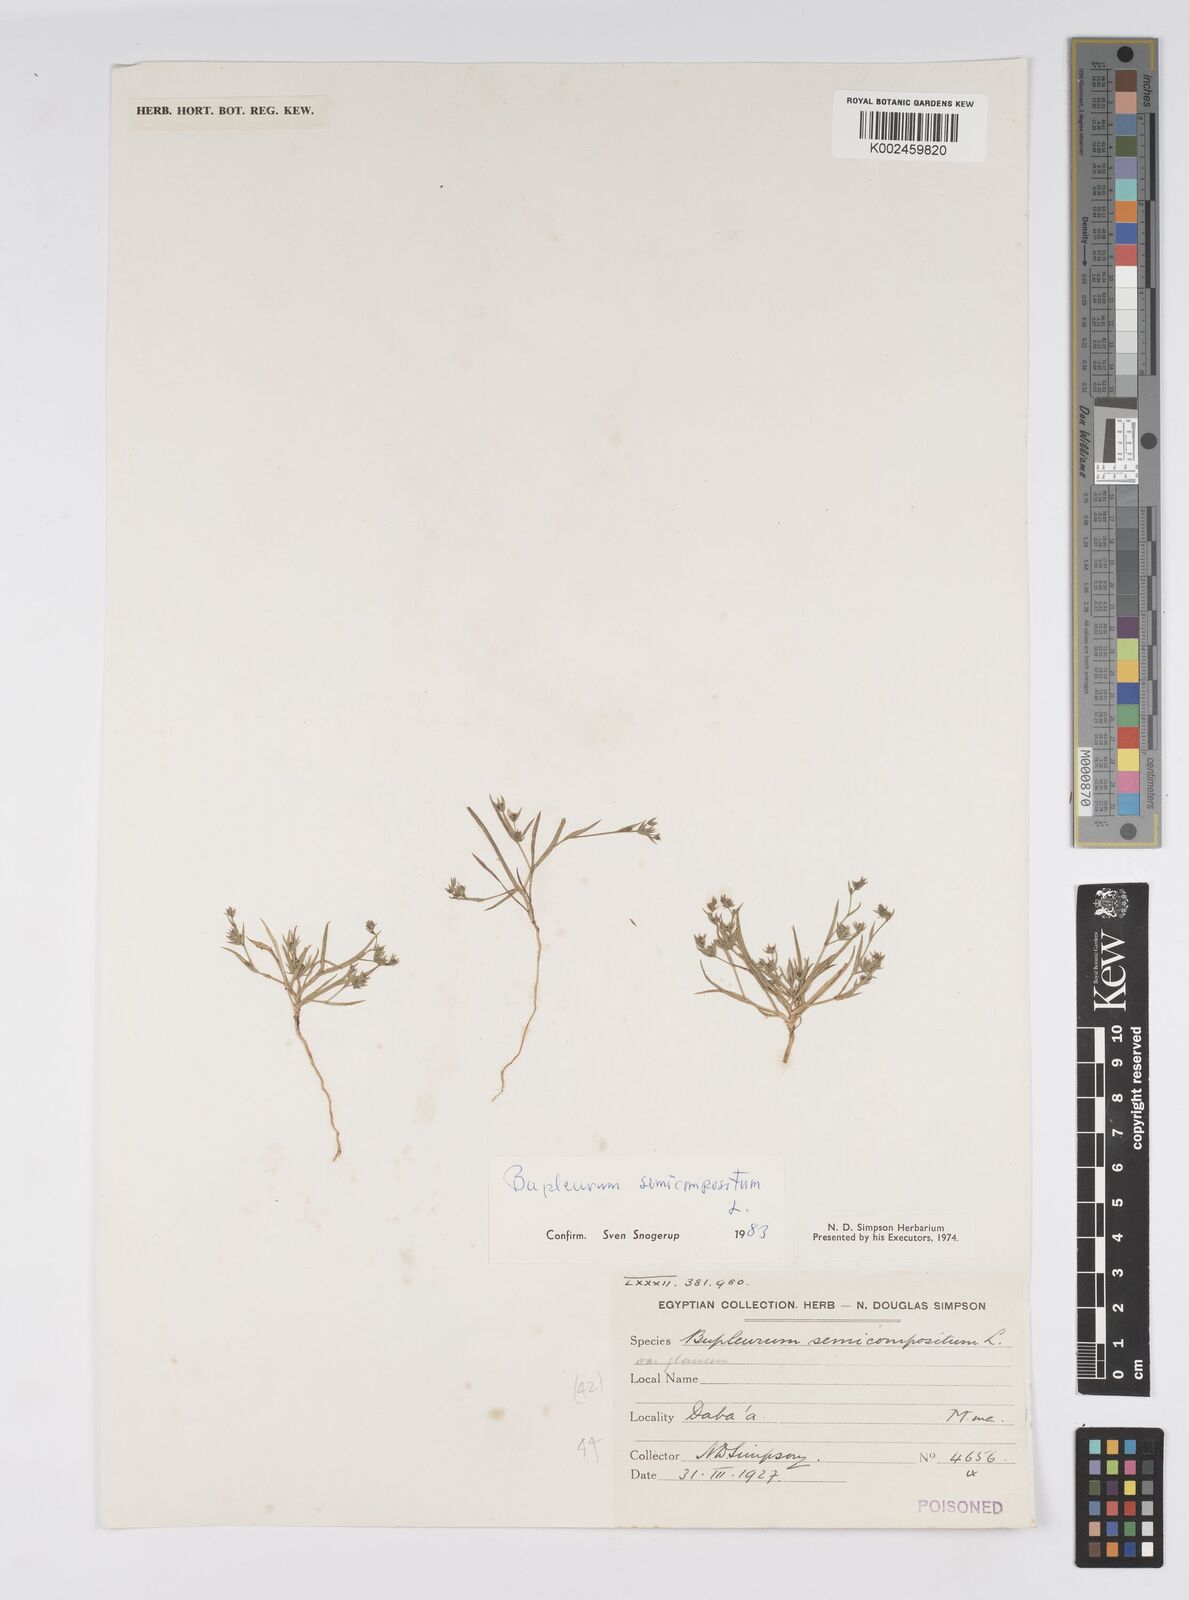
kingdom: Plantae
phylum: Tracheophyta
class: Magnoliopsida
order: Apiales
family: Apiaceae
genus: Bupleurum
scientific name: Bupleurum semicompositum
